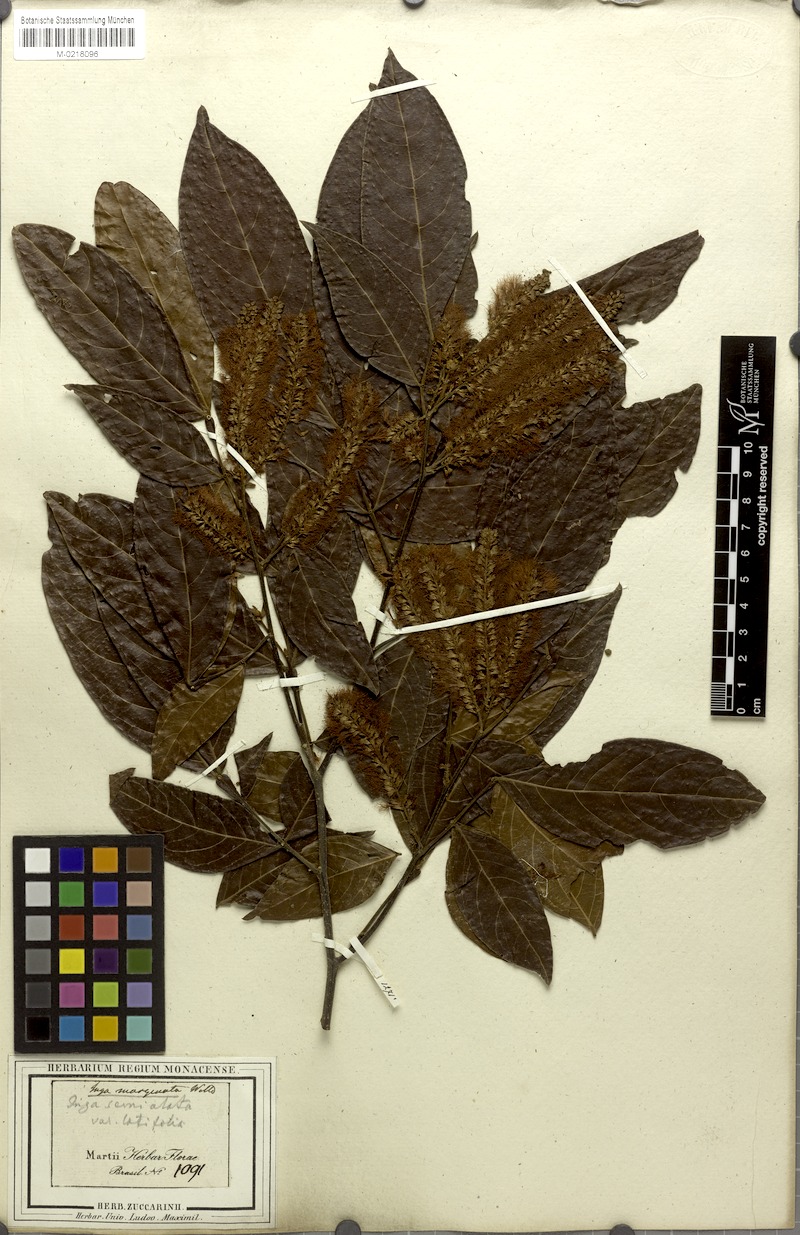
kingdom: Plantae
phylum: Tracheophyta
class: Magnoliopsida
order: Fabales
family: Fabaceae
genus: Inga
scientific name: Inga marginata
